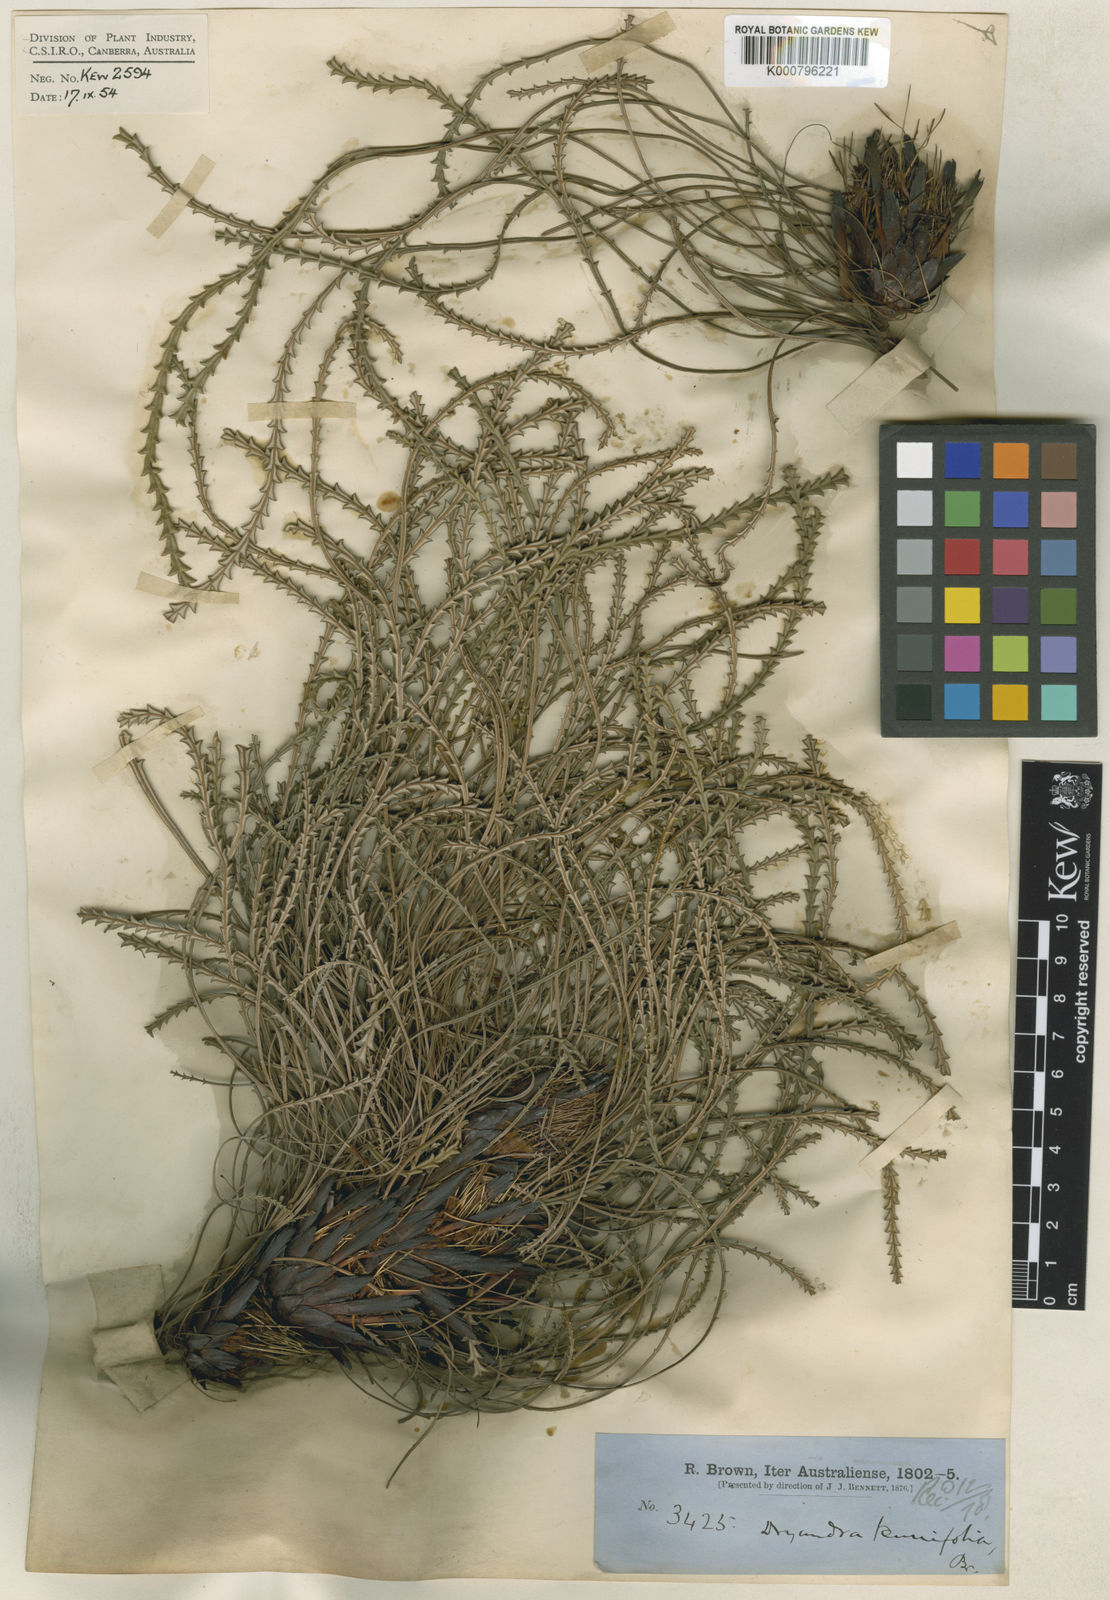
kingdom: Plantae
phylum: Tracheophyta
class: Magnoliopsida
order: Proteales
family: Proteaceae
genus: Banksia
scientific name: Banksia tenuis
